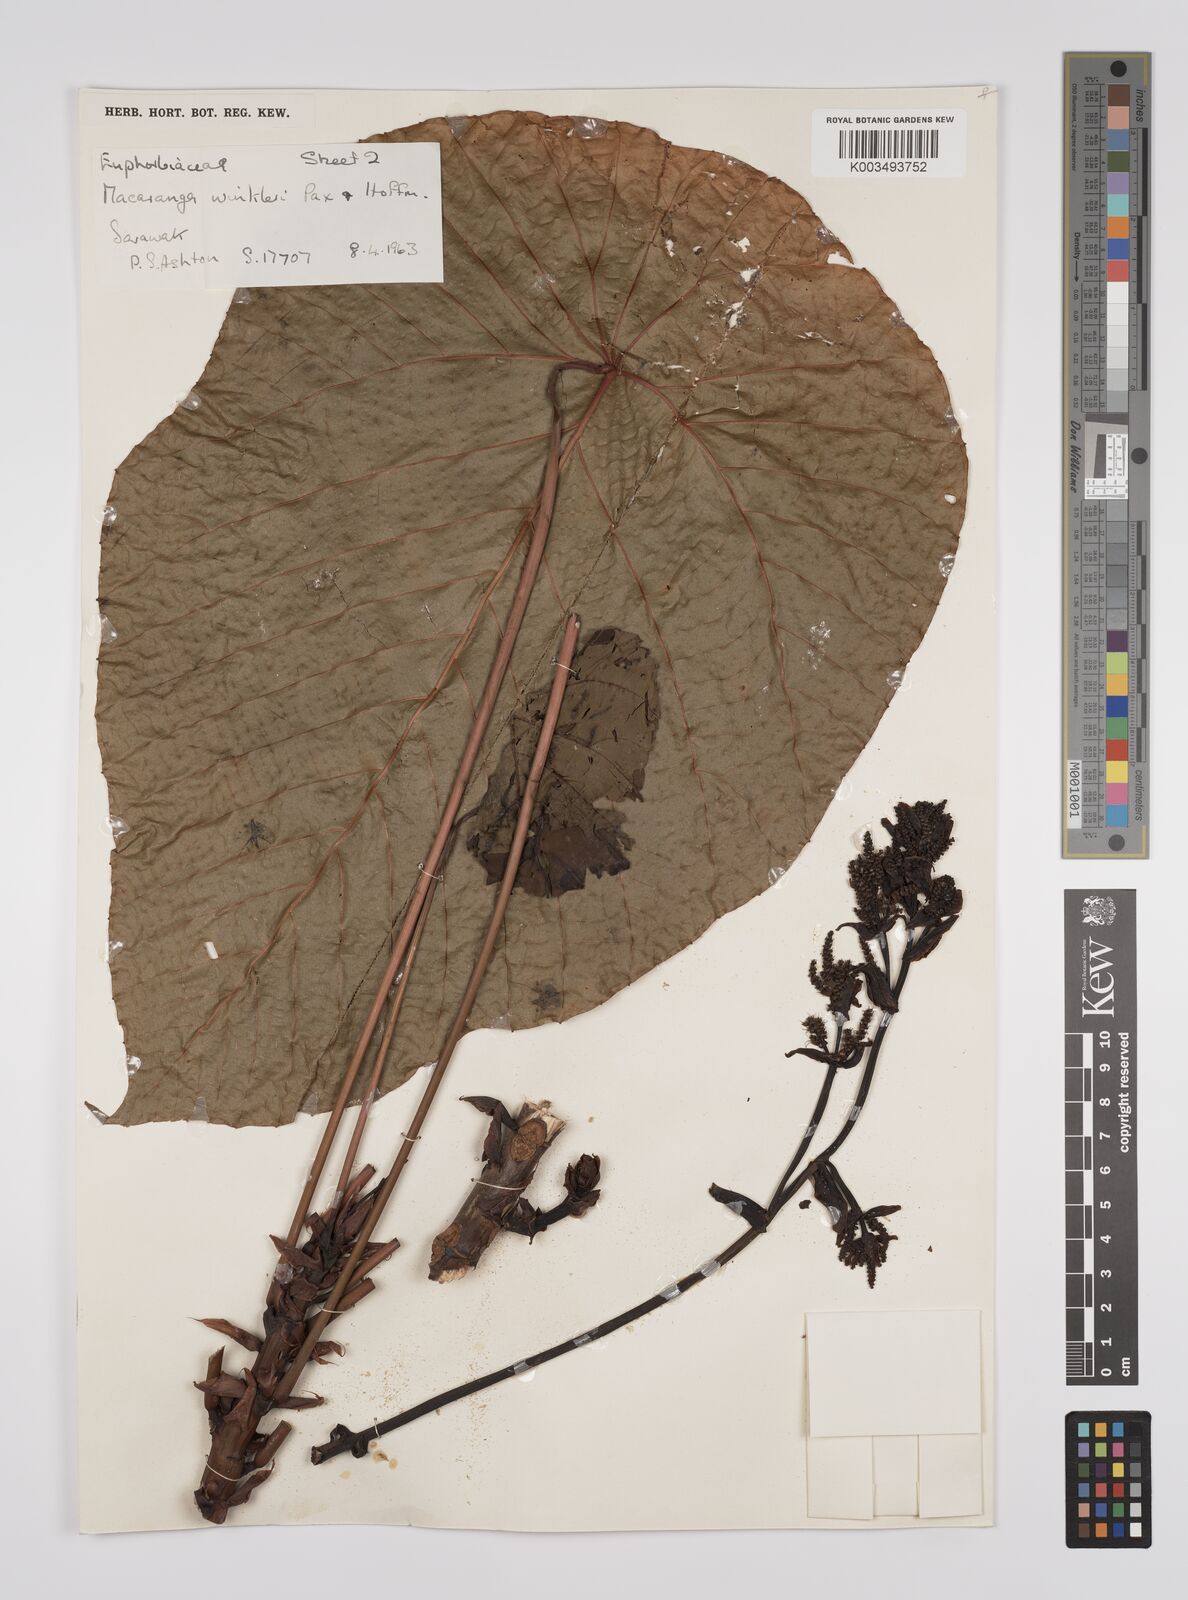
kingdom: Plantae
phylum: Tracheophyta
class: Magnoliopsida
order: Malpighiales
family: Euphorbiaceae
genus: Macaranga
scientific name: Macaranga winkleri
